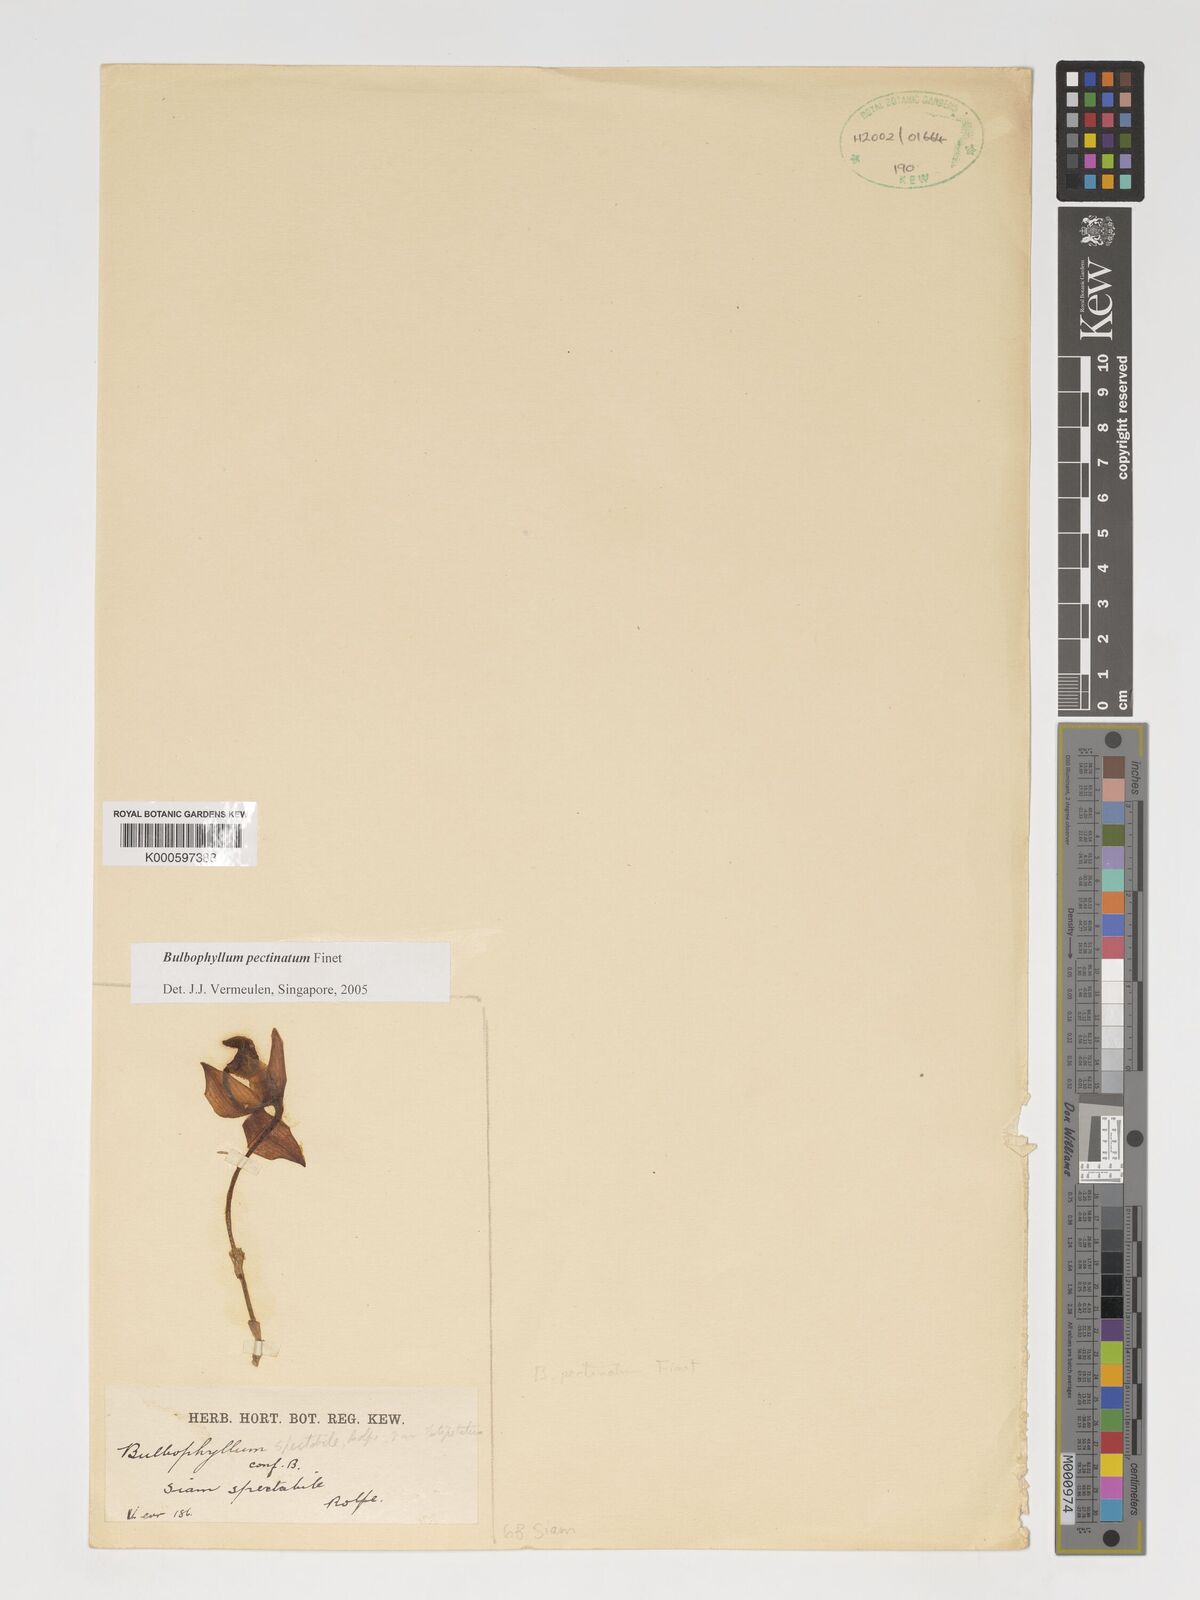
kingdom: Plantae
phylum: Tracheophyta
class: Liliopsida
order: Asparagales
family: Orchidaceae
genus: Bulbophyllum
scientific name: Bulbophyllum pectinatum
